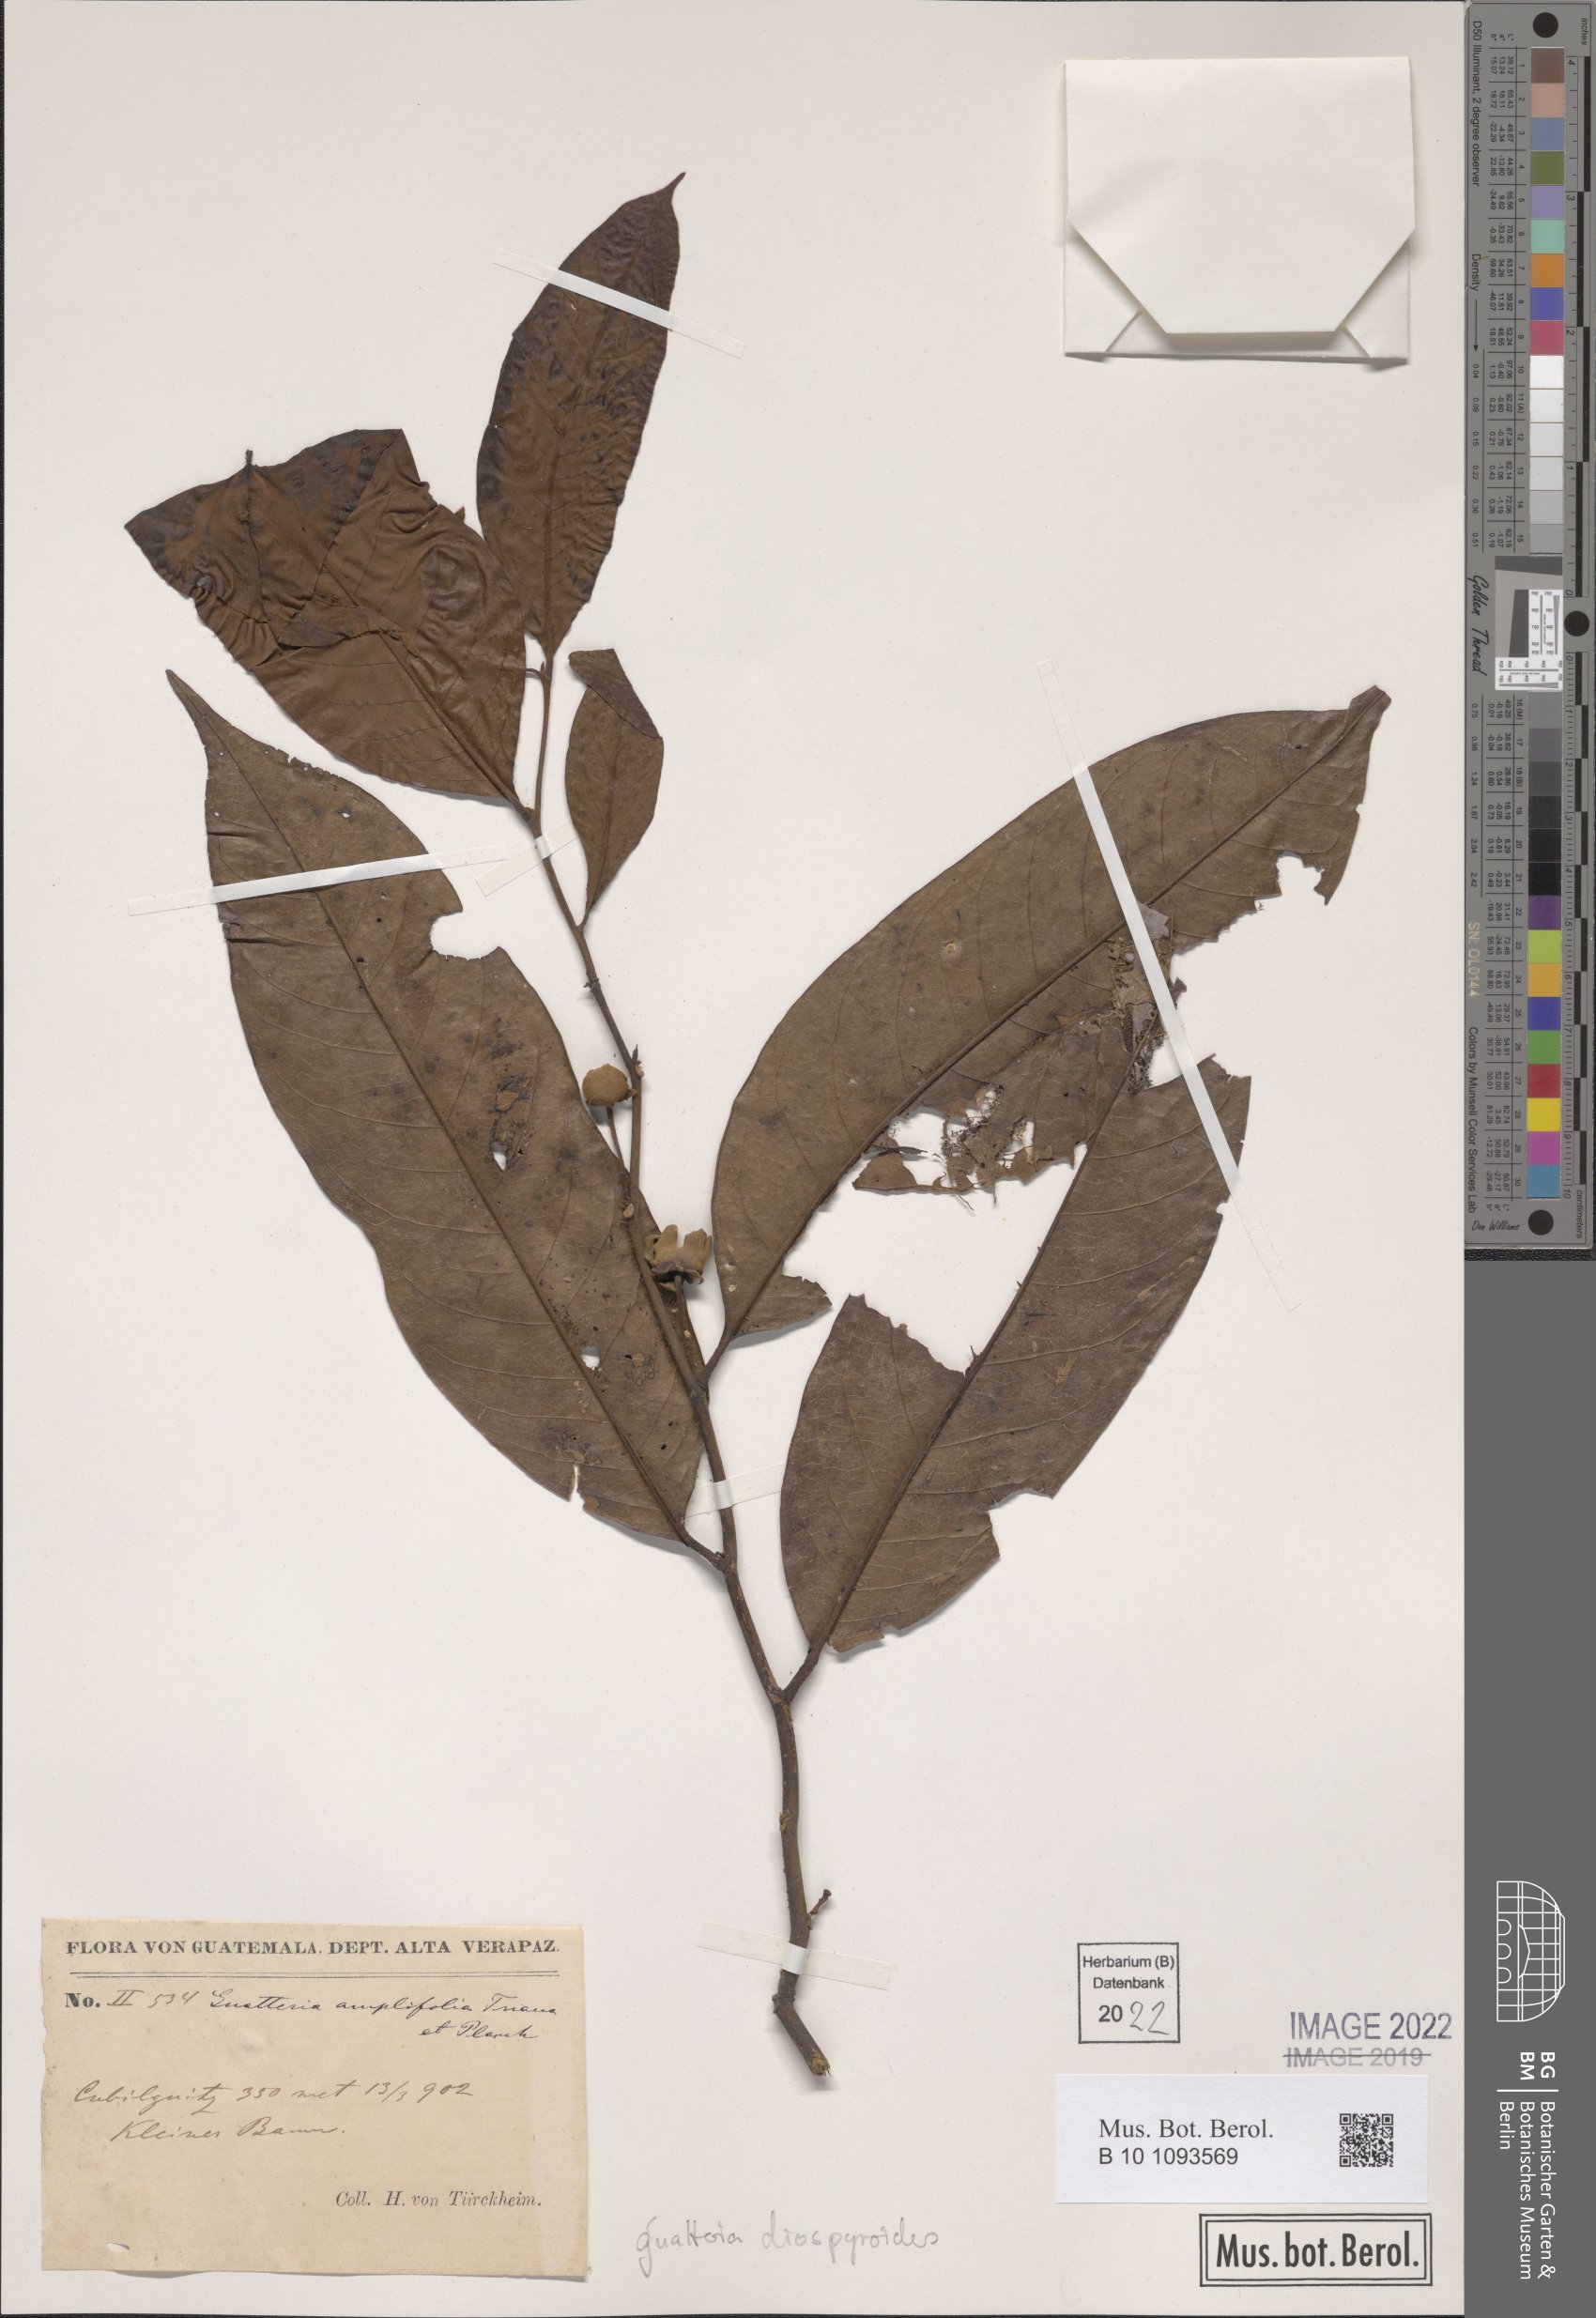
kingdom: Plantae
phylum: Tracheophyta
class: Magnoliopsida
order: Magnoliales
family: Annonaceae
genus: Guatteria
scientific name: Guatteria diospyroides
